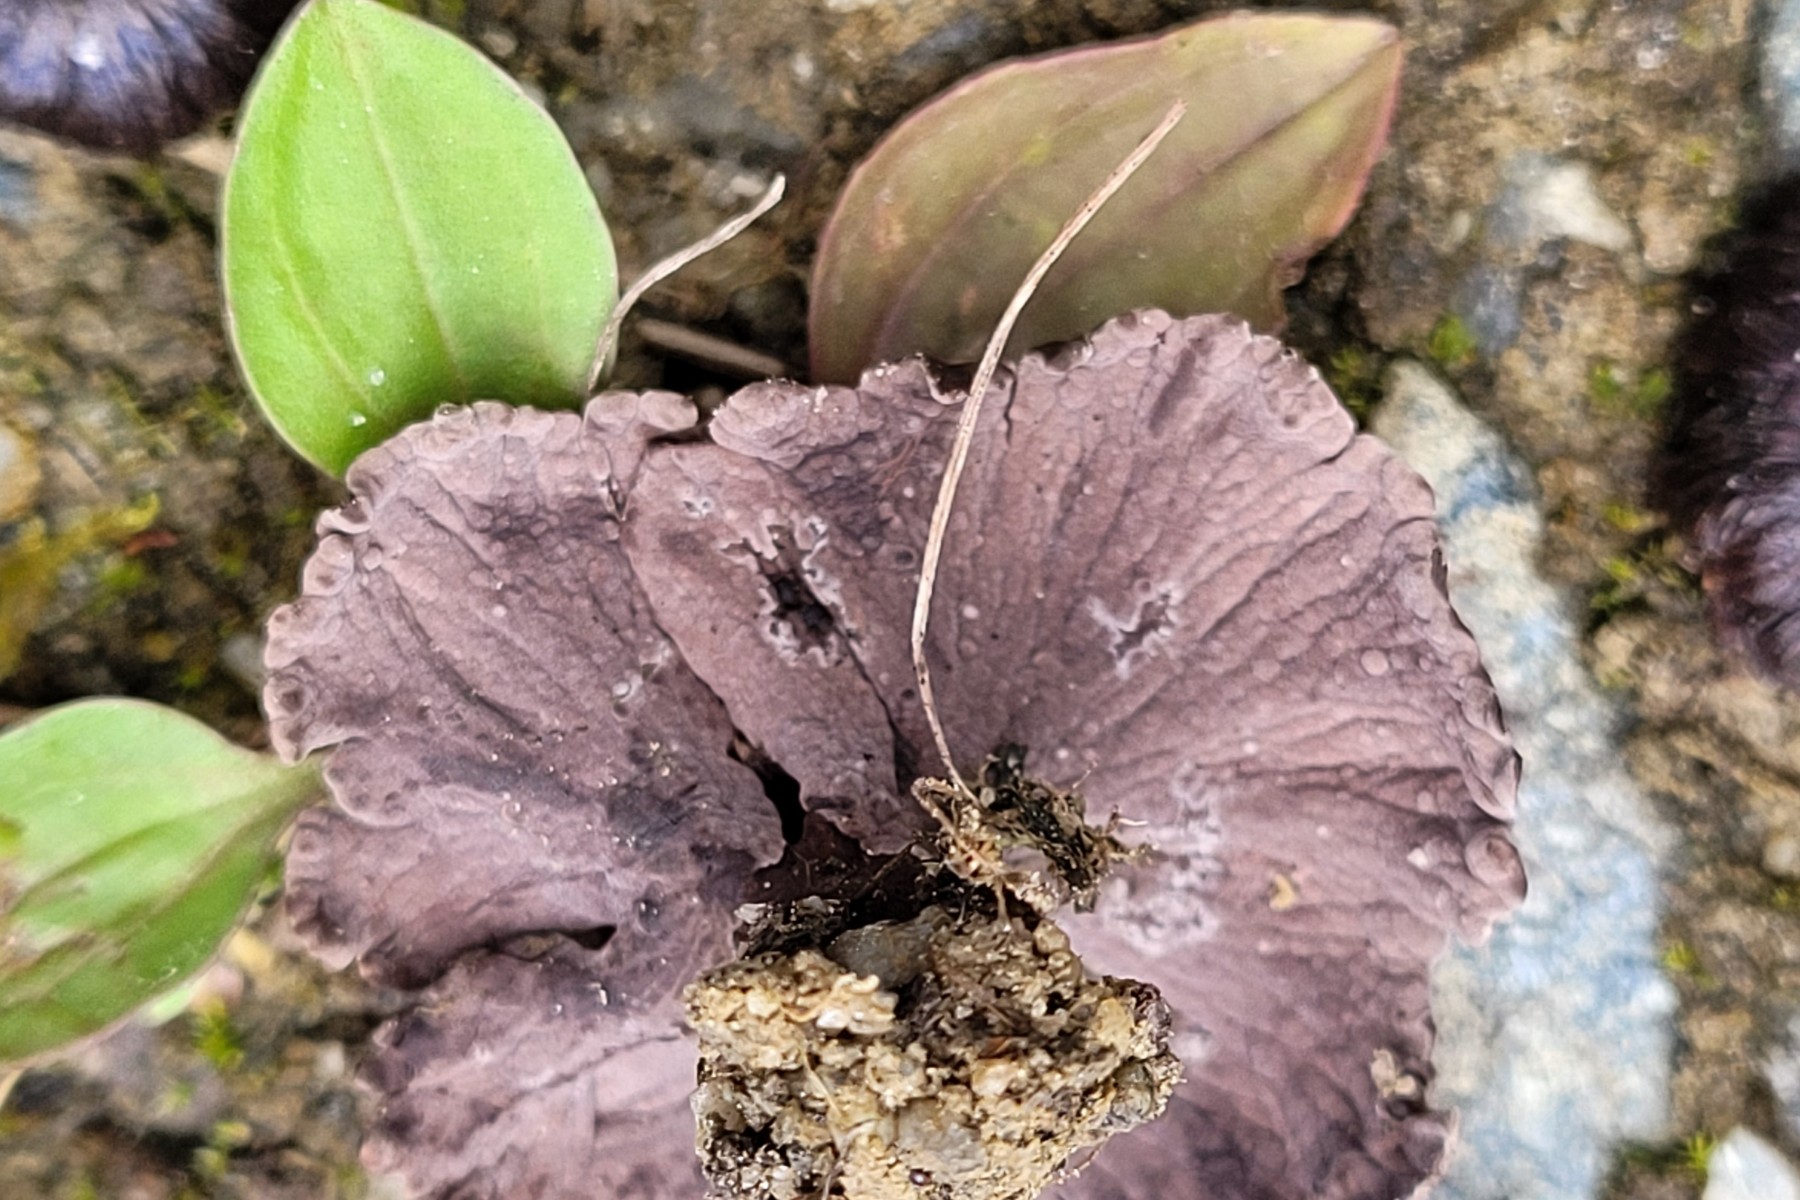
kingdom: Fungi
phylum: Basidiomycota
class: Agaricomycetes
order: Thelephorales
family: Thelephoraceae
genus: Thelephora
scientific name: Thelephora caryophyllea
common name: tragt-frynsesvamp
